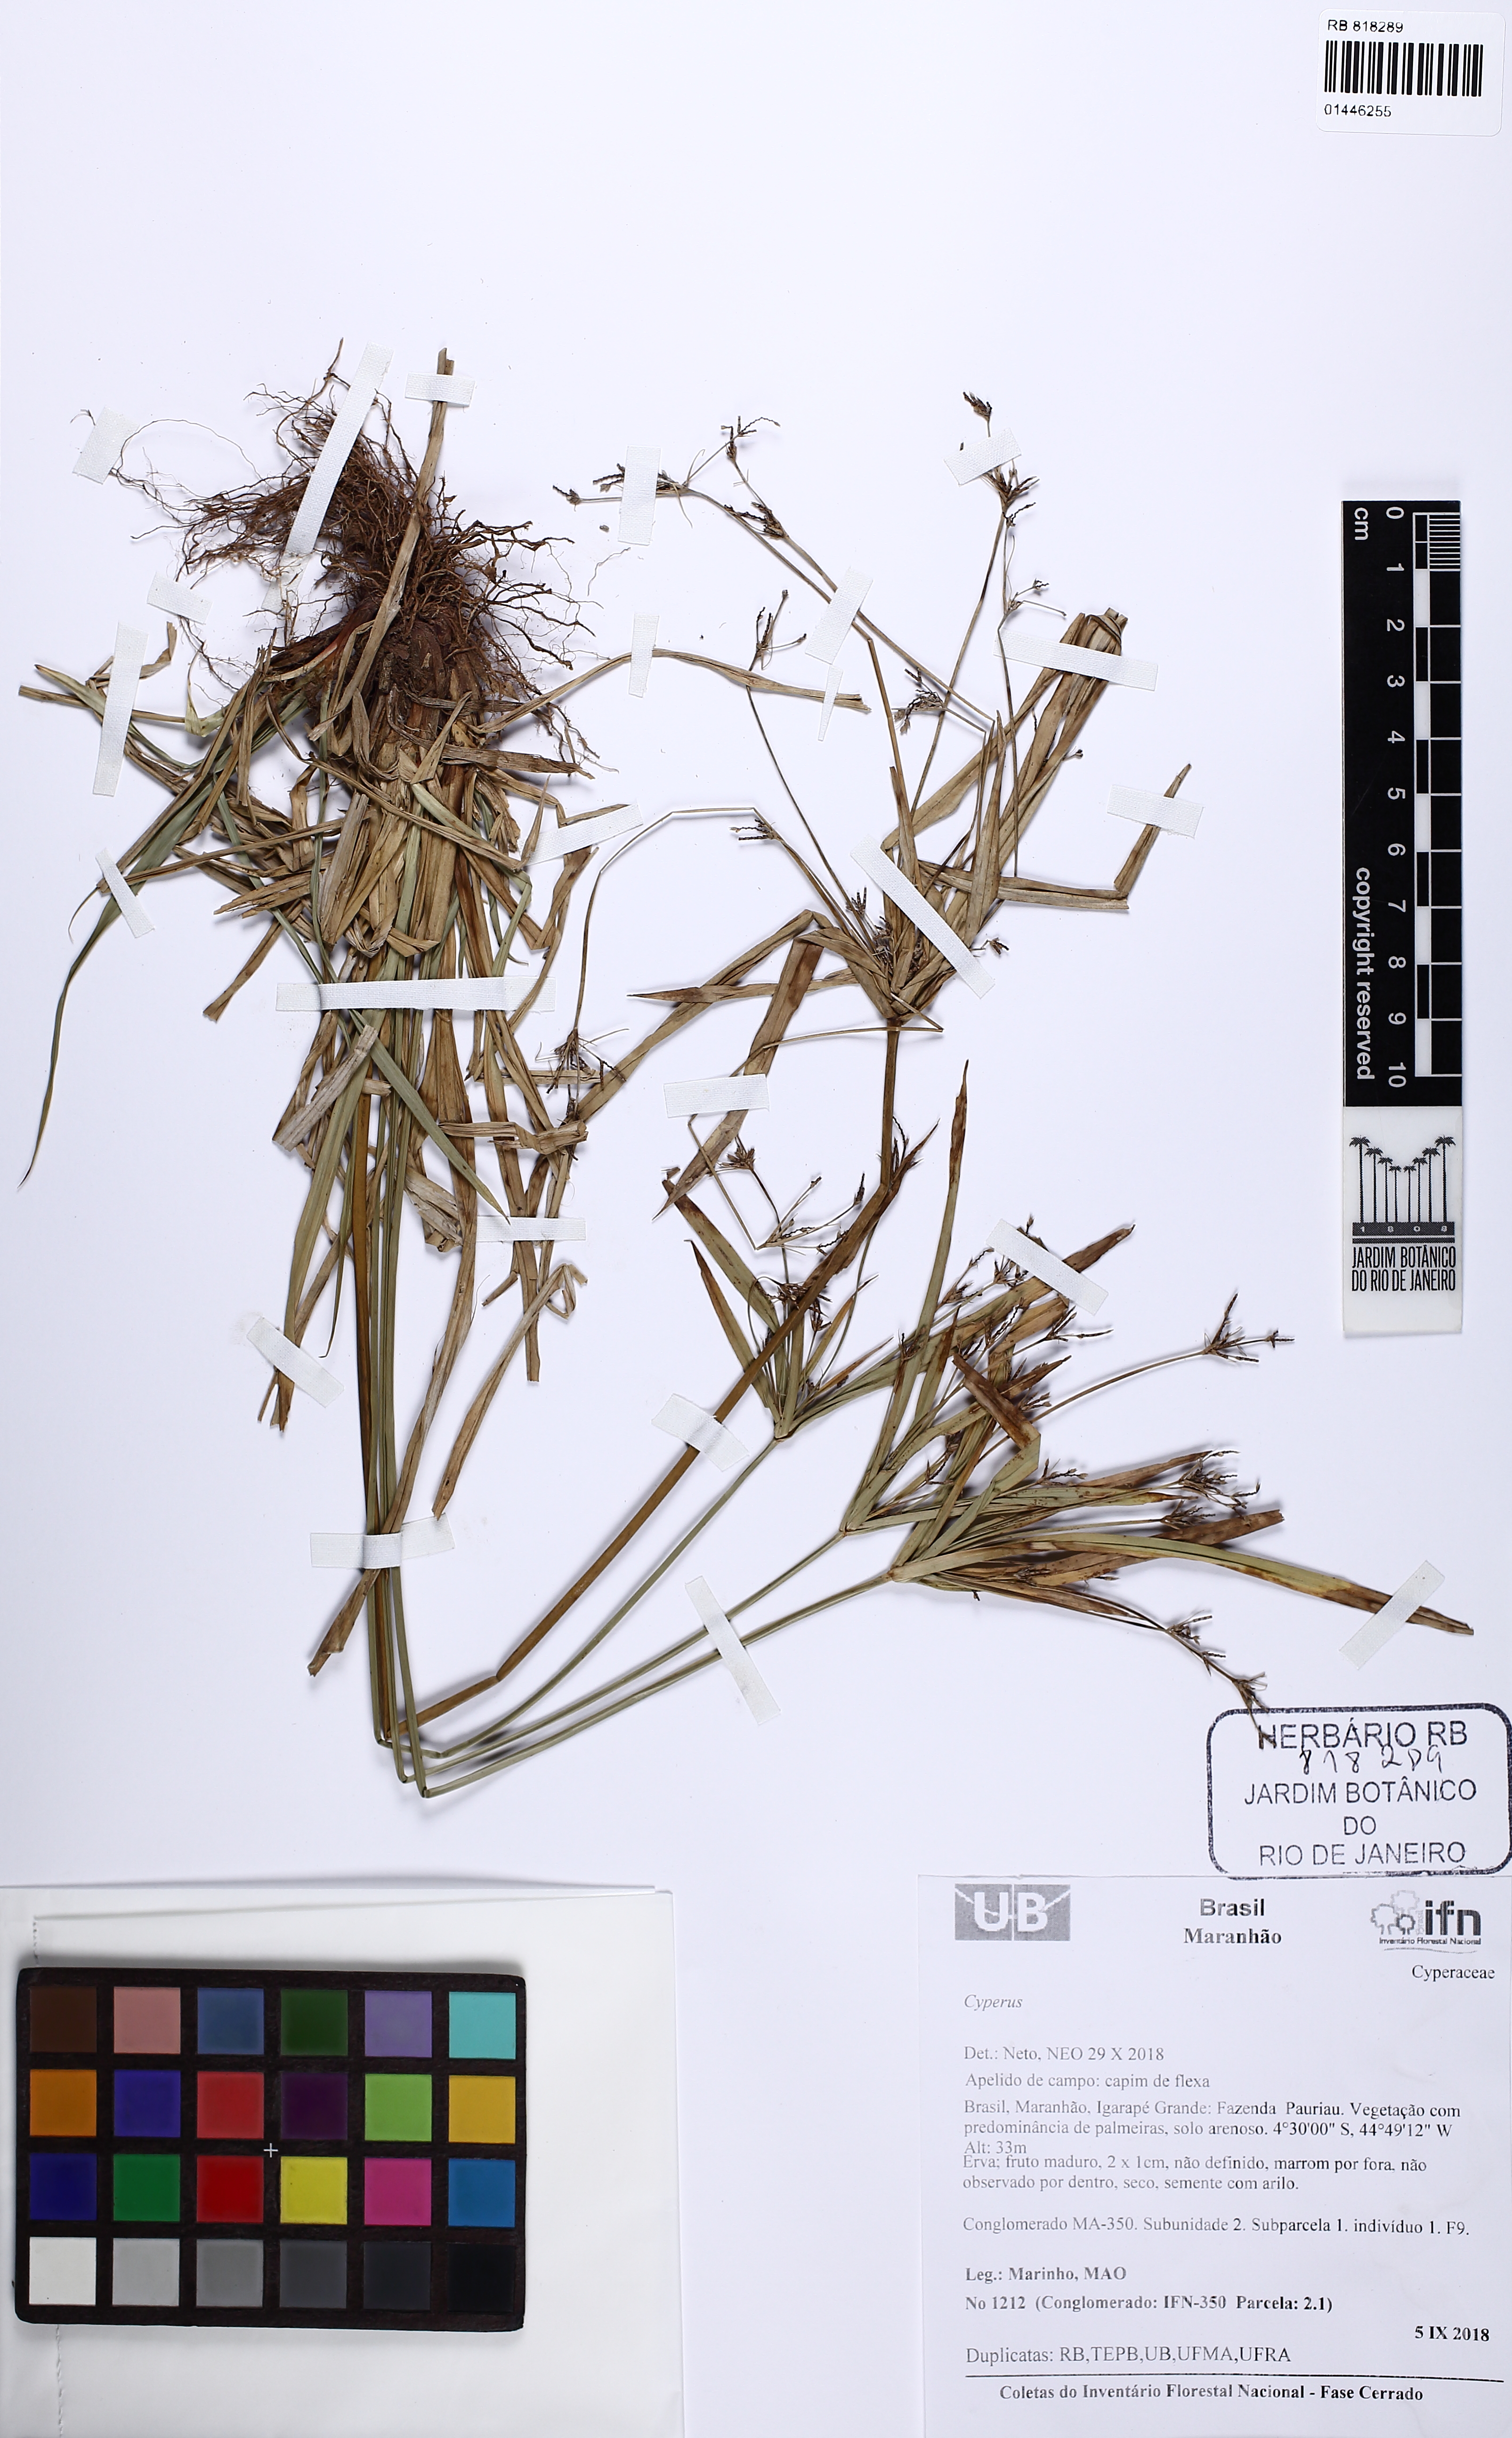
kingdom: Plantae
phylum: Tracheophyta
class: Liliopsida
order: Poales
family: Cyperaceae
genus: Cyperus
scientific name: Cyperus
